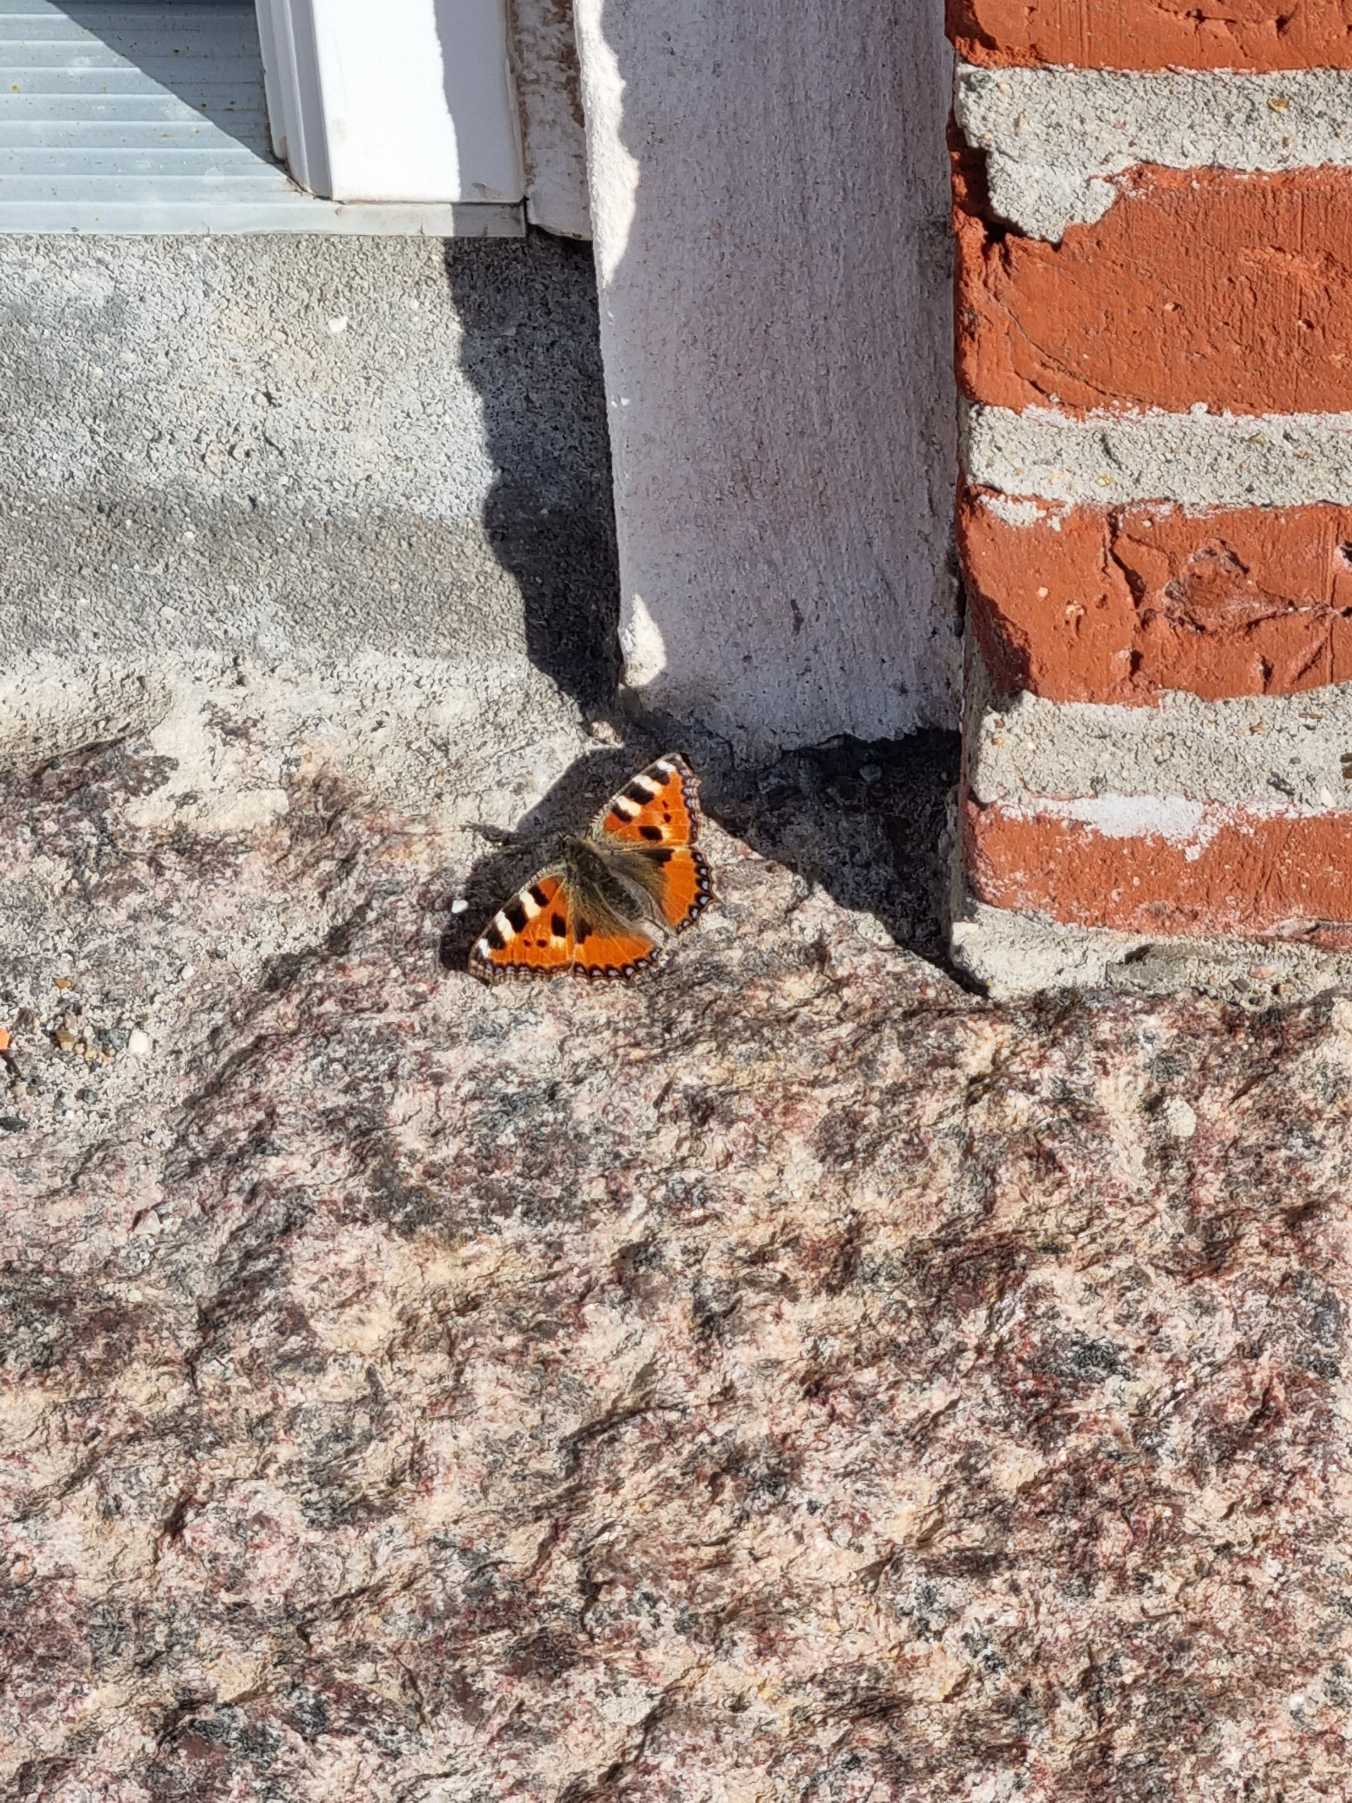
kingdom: Animalia
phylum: Arthropoda
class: Insecta
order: Lepidoptera
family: Nymphalidae
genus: Aglais
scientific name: Aglais urticae
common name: Nældens takvinge
